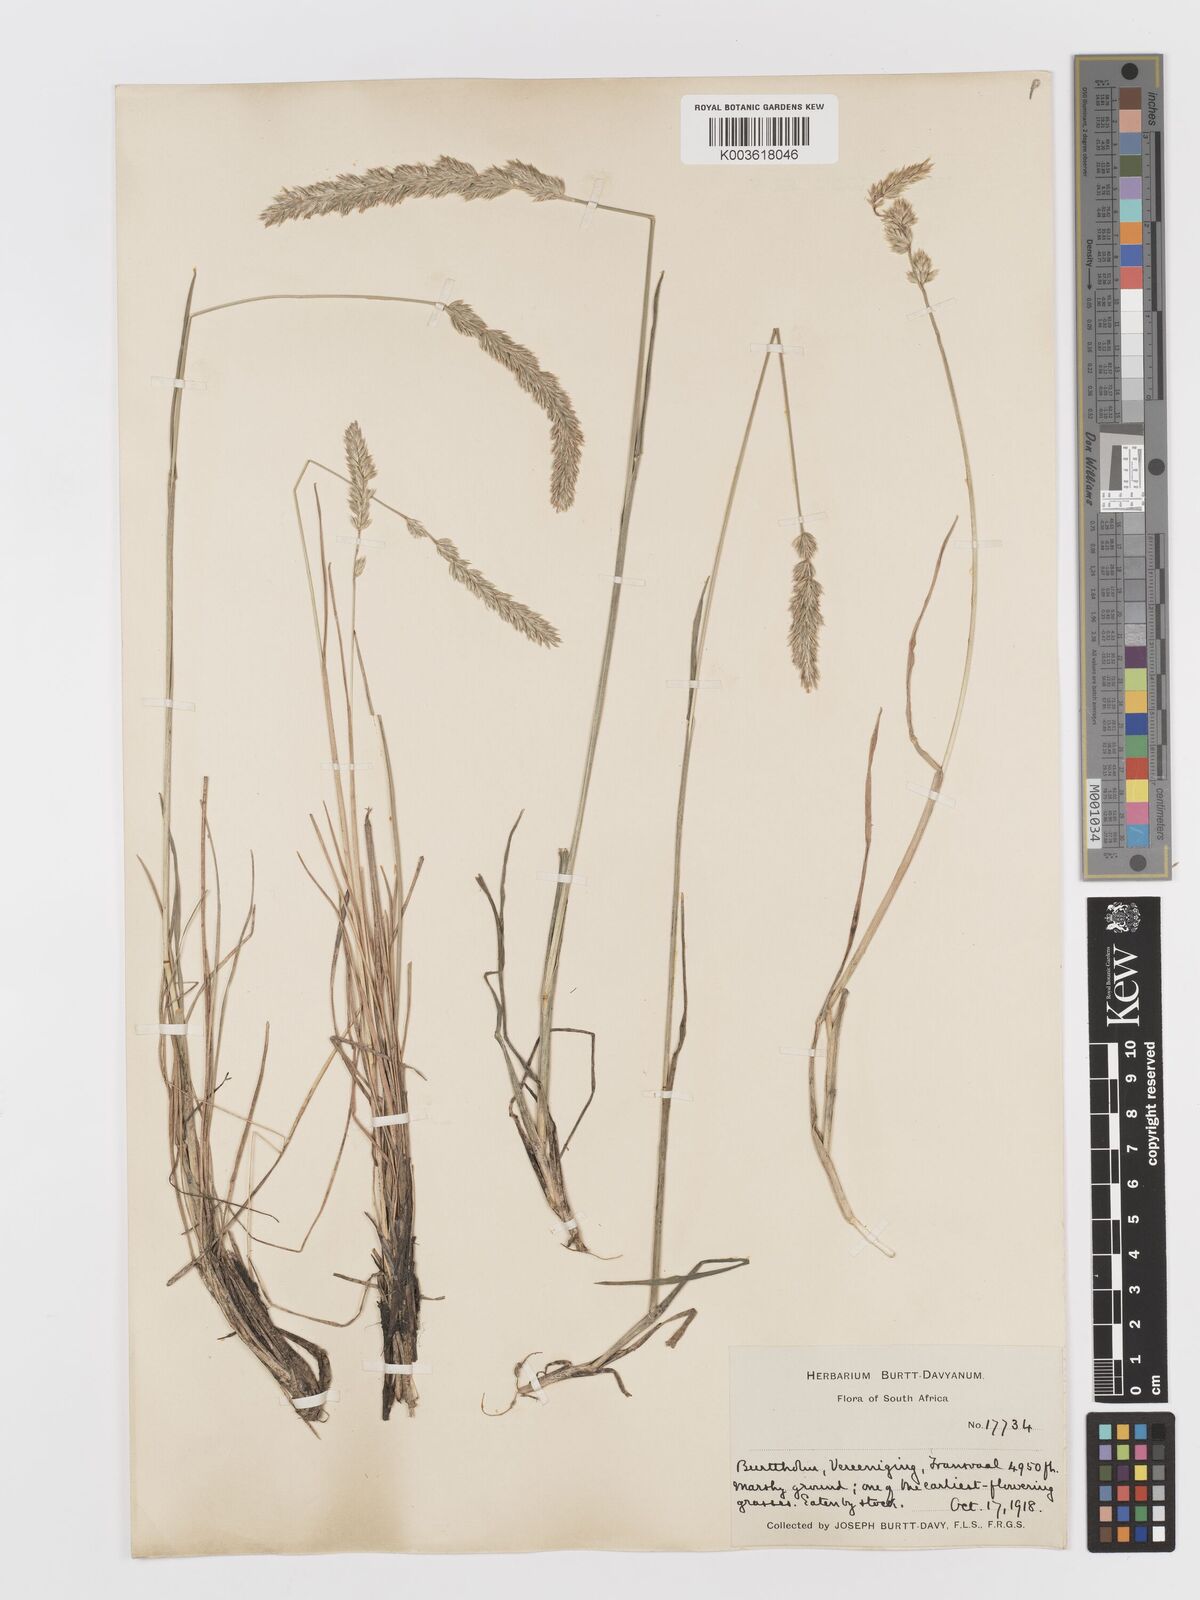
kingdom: Plantae
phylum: Tracheophyta
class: Liliopsida
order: Poales
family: Poaceae
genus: Koeleria
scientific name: Koeleria capensis
